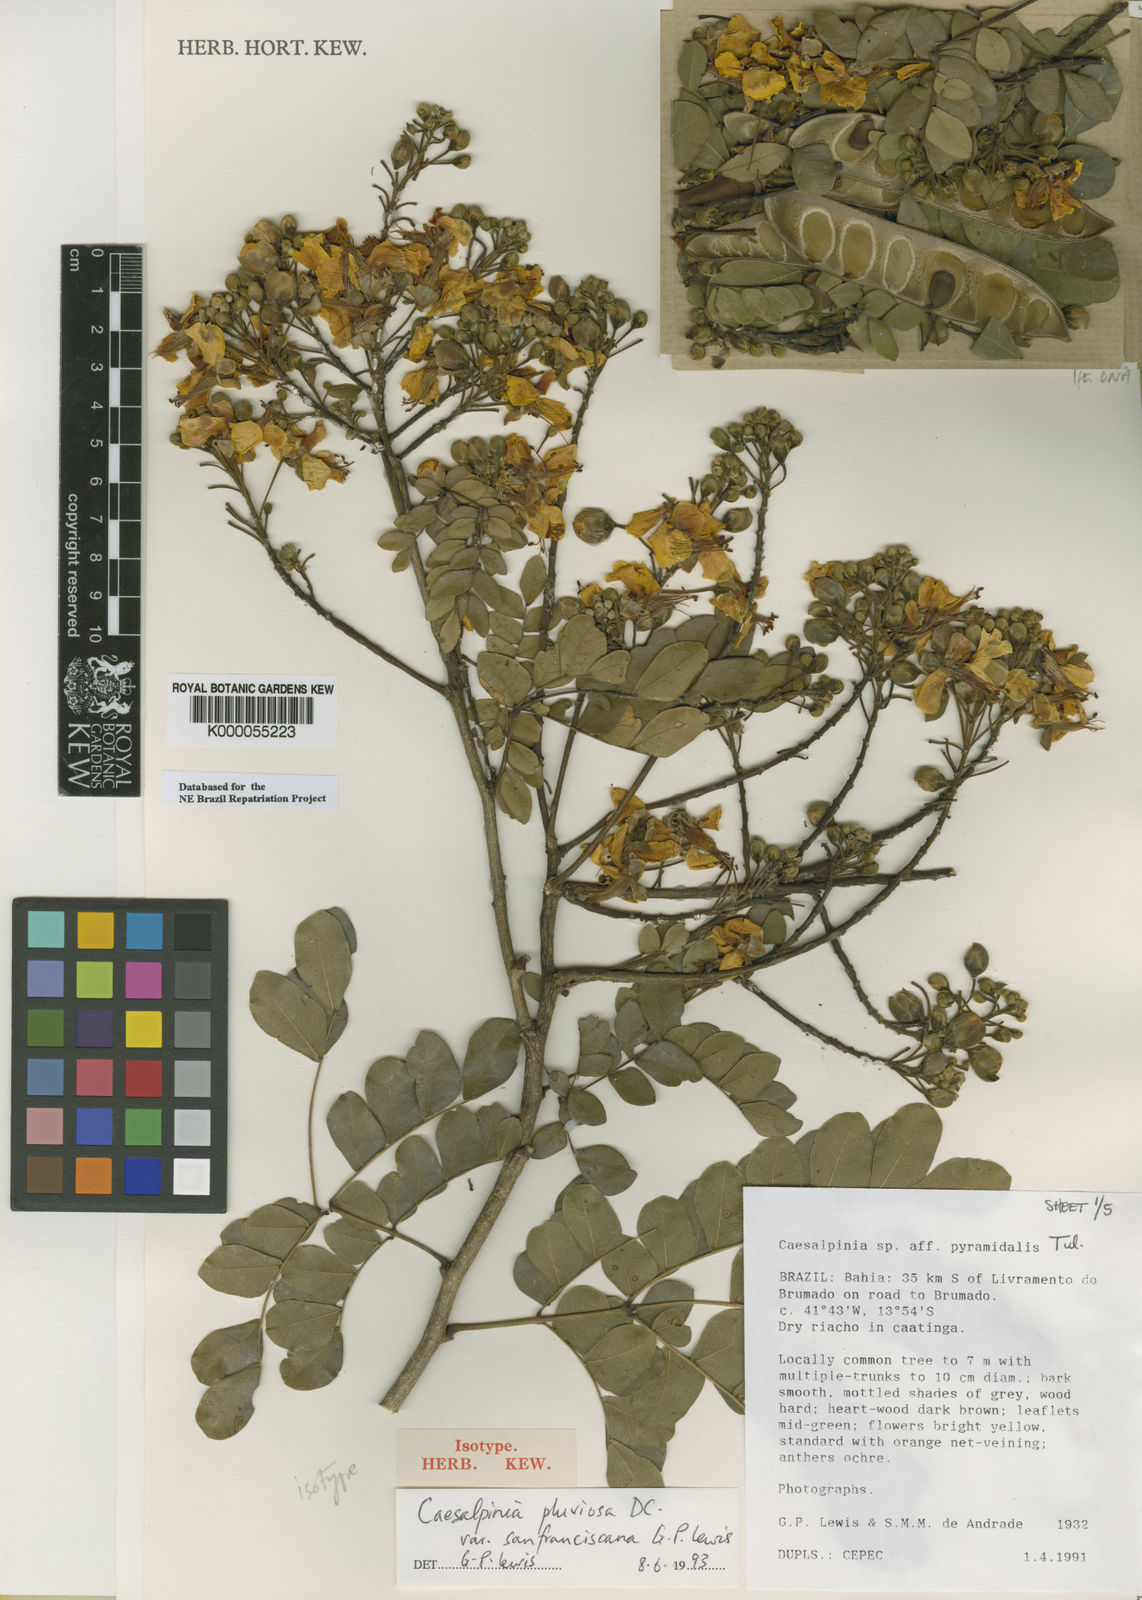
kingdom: Plantae
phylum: Tracheophyta
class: Magnoliopsida
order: Fabales
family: Fabaceae
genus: Cenostigma
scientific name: Cenostigma pluviosum
